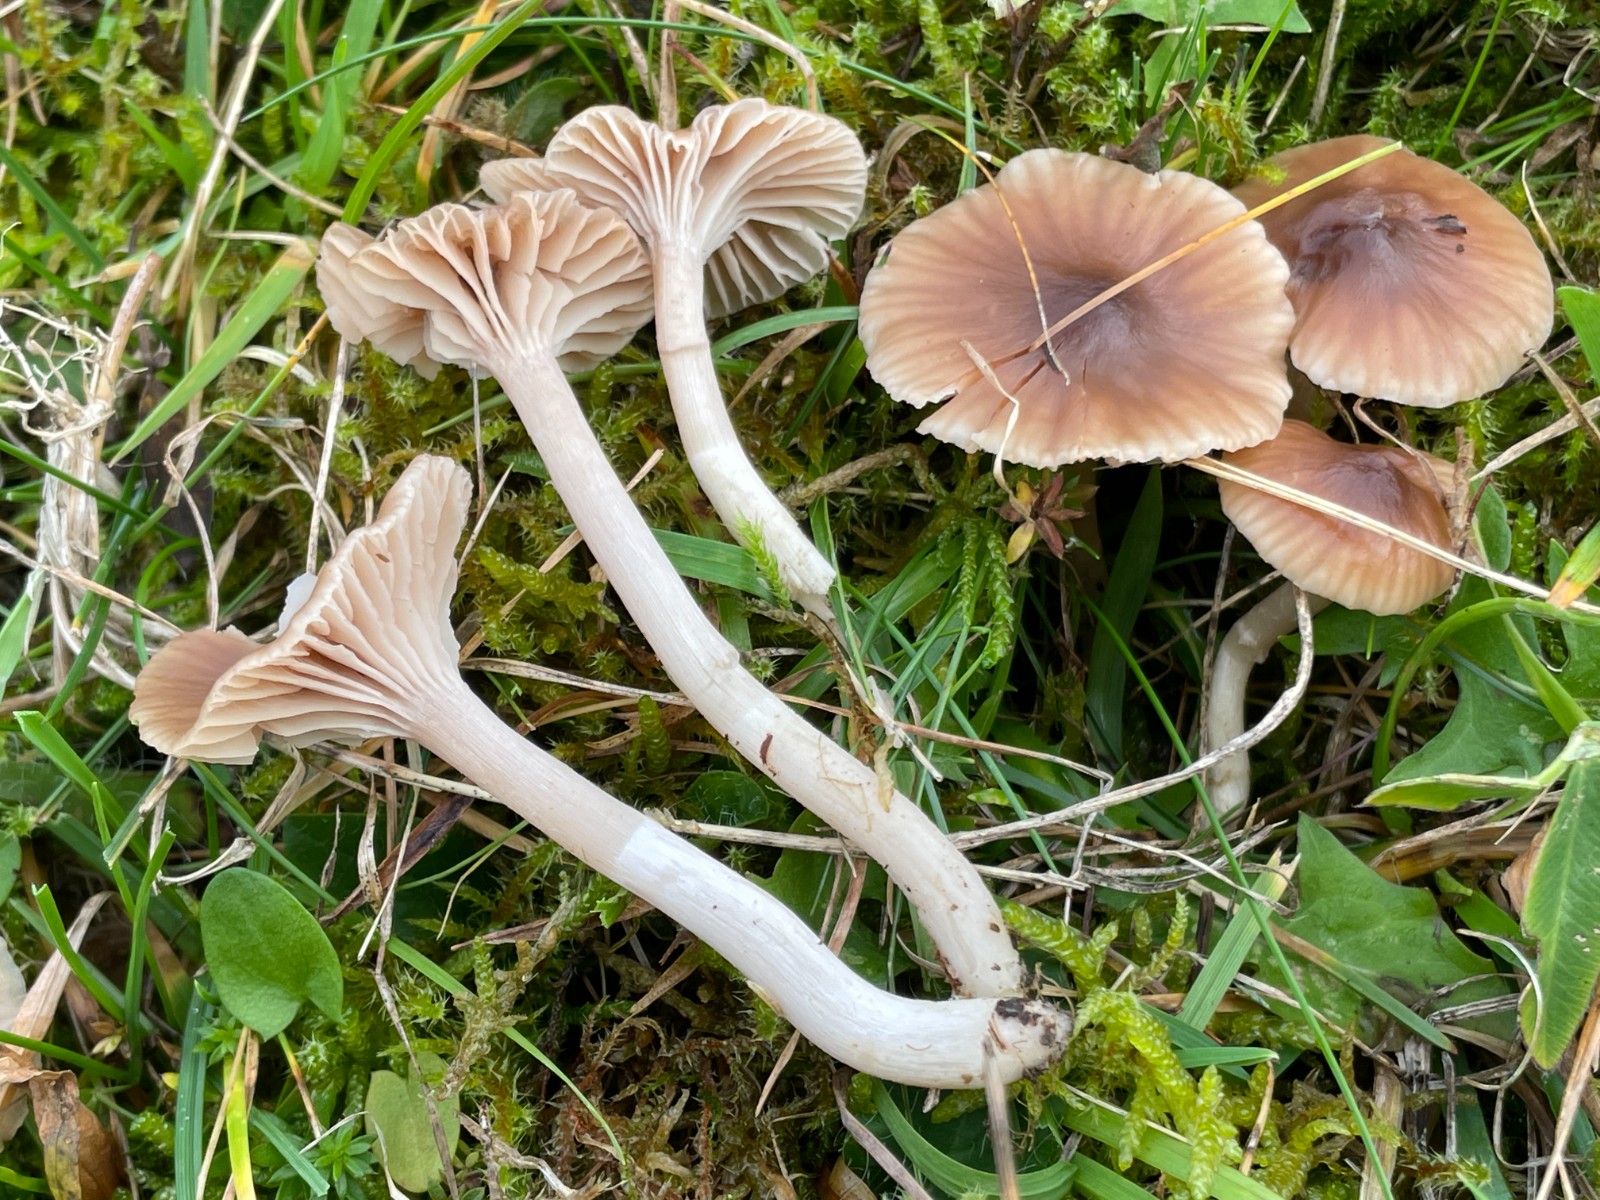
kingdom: Fungi
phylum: Basidiomycota
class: Agaricomycetes
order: Agaricales
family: Hygrophoraceae
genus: Cuphophyllus
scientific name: Cuphophyllus colemannianus
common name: rødbrun vokshat
